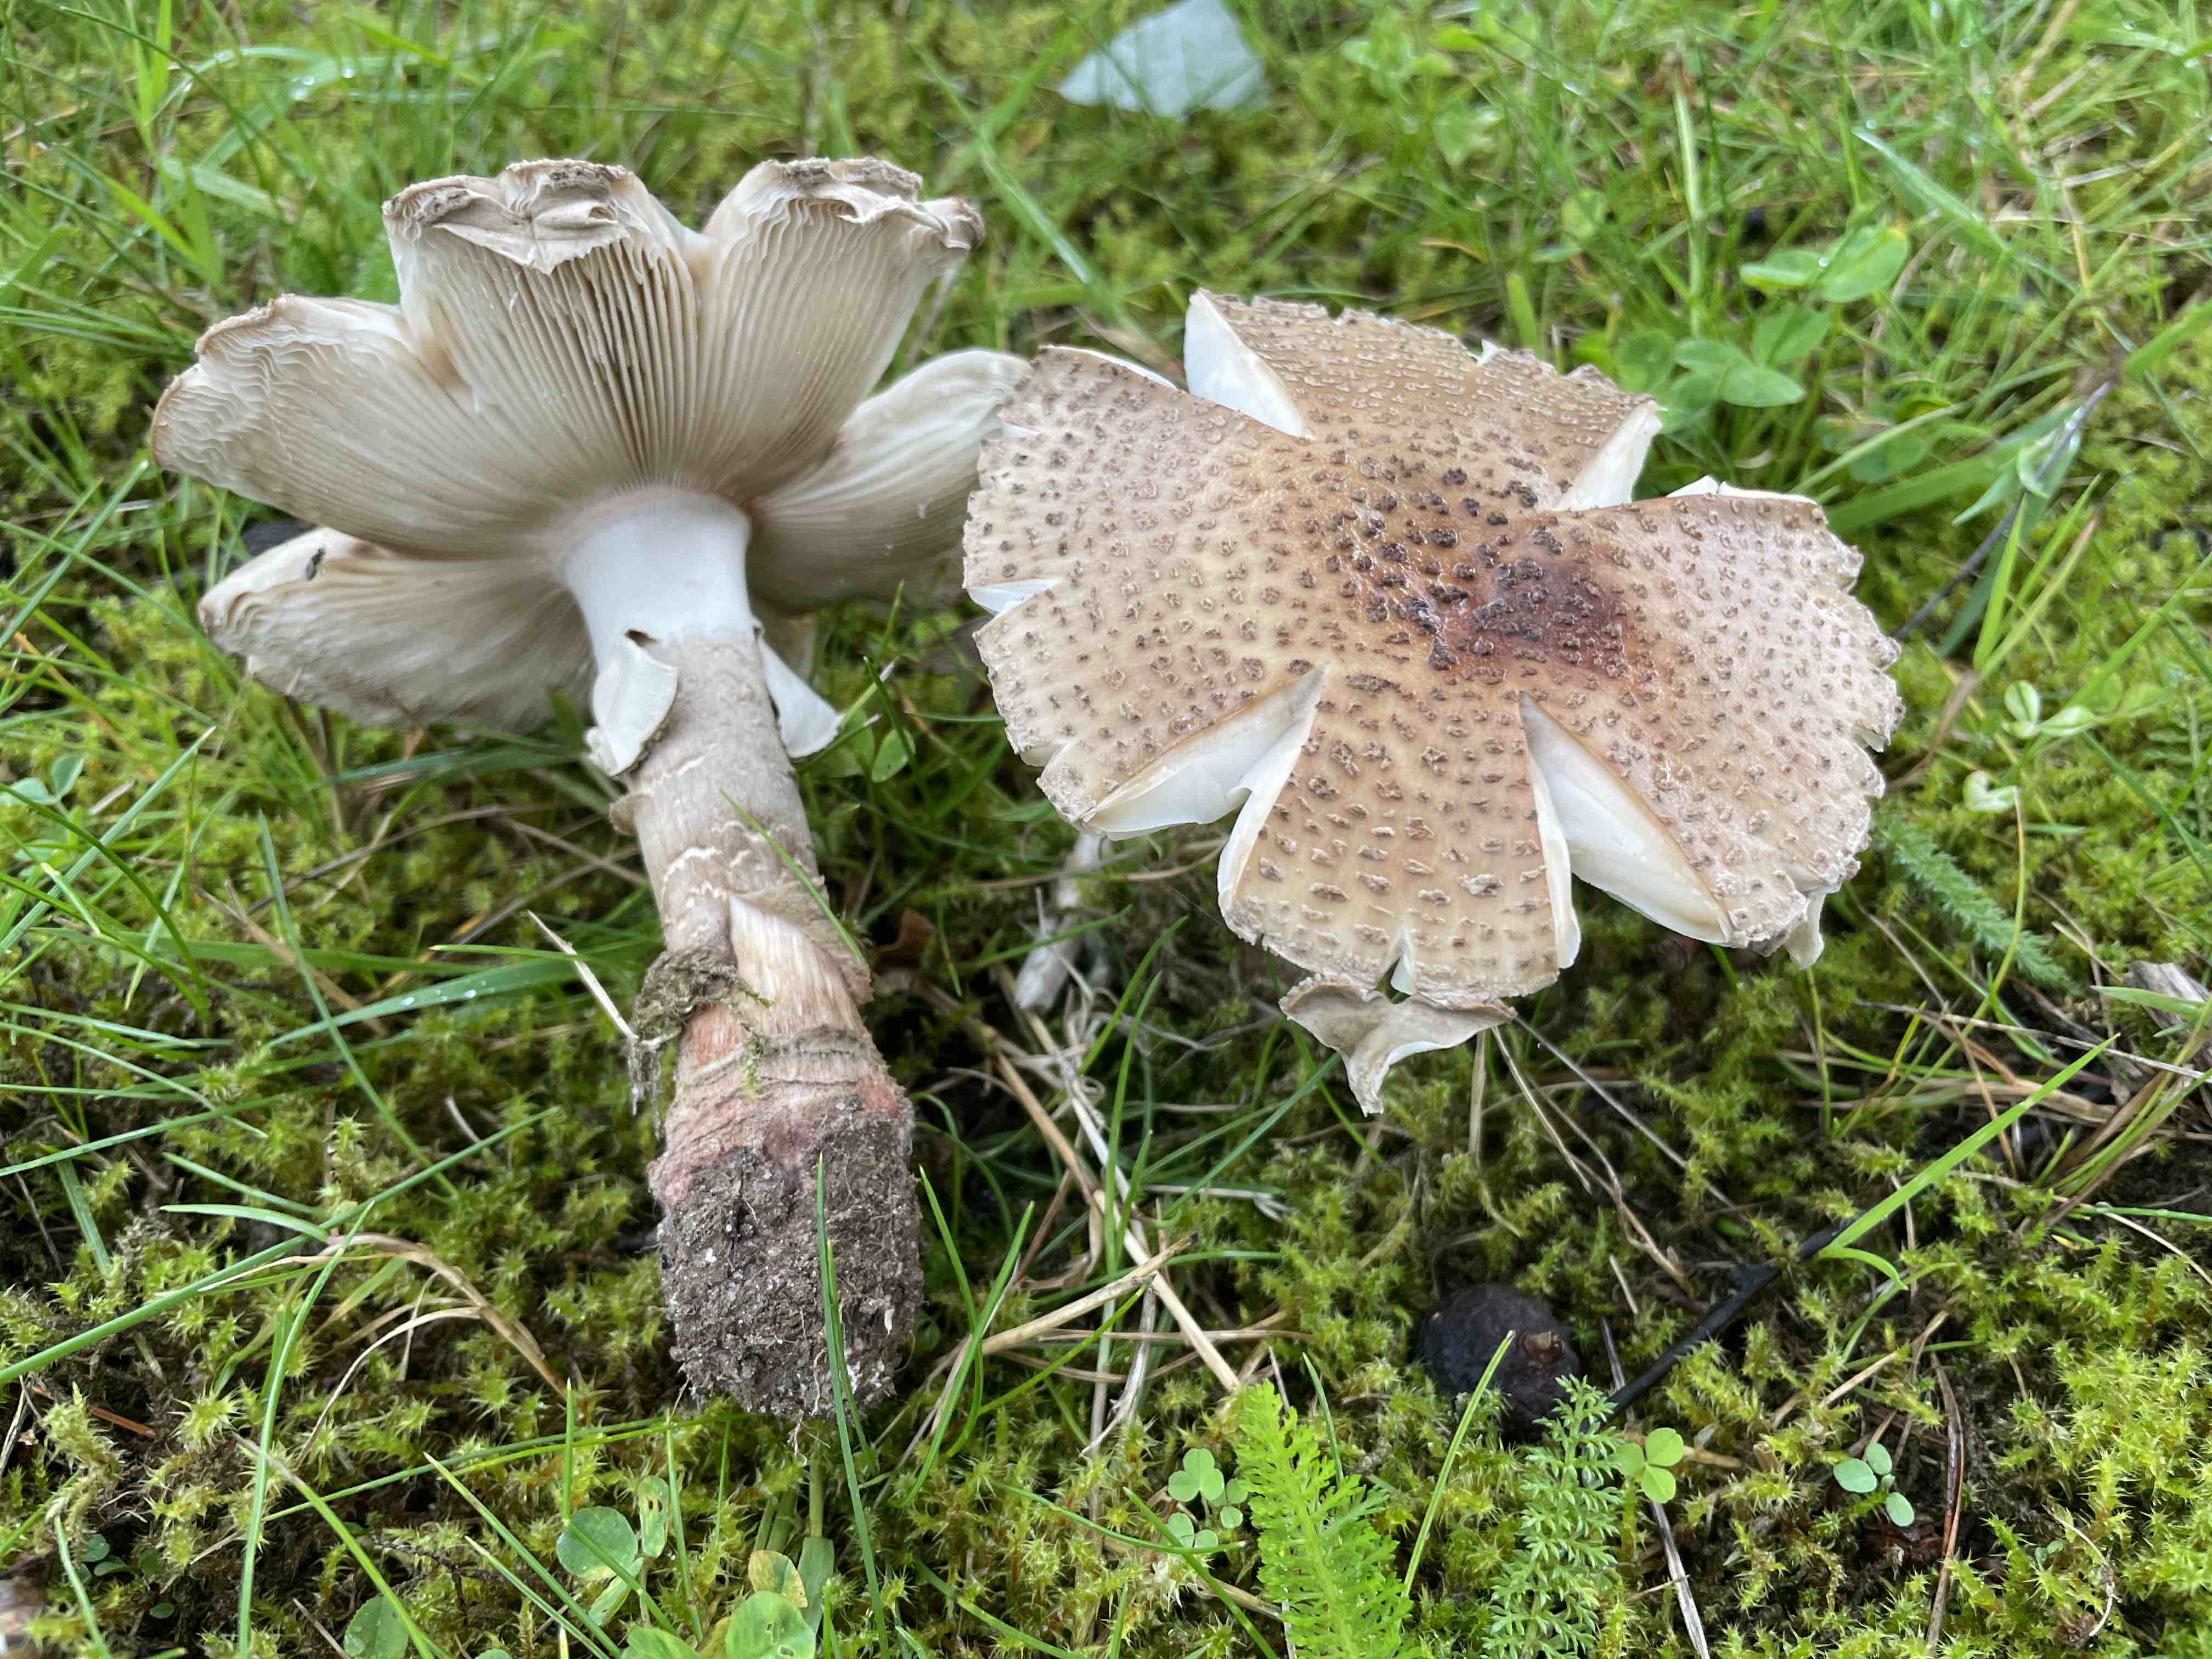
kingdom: Fungi
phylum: Basidiomycota
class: Agaricomycetes
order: Agaricales
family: Amanitaceae
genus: Amanita
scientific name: Amanita rubescens
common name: rødmende fluesvamp
